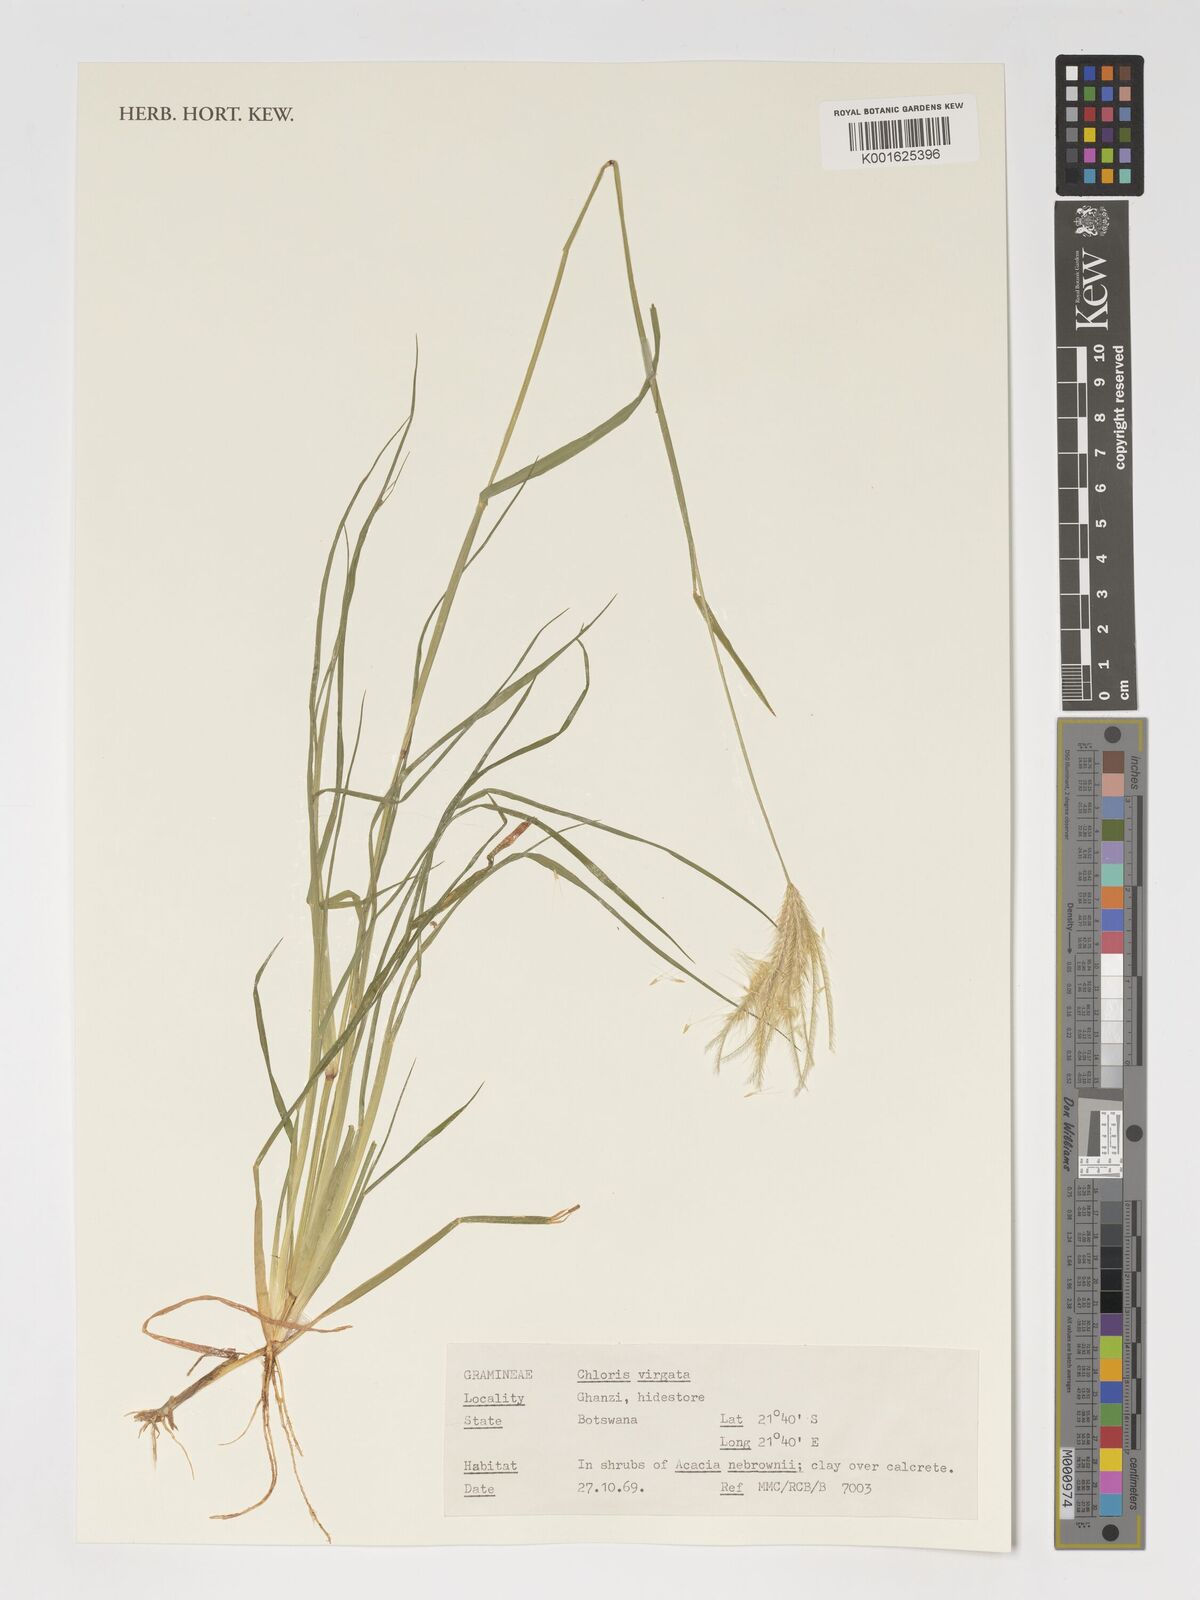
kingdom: Plantae
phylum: Tracheophyta
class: Liliopsida
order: Poales
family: Poaceae
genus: Chloris
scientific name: Chloris virgata
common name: Feathery rhodes-grass
